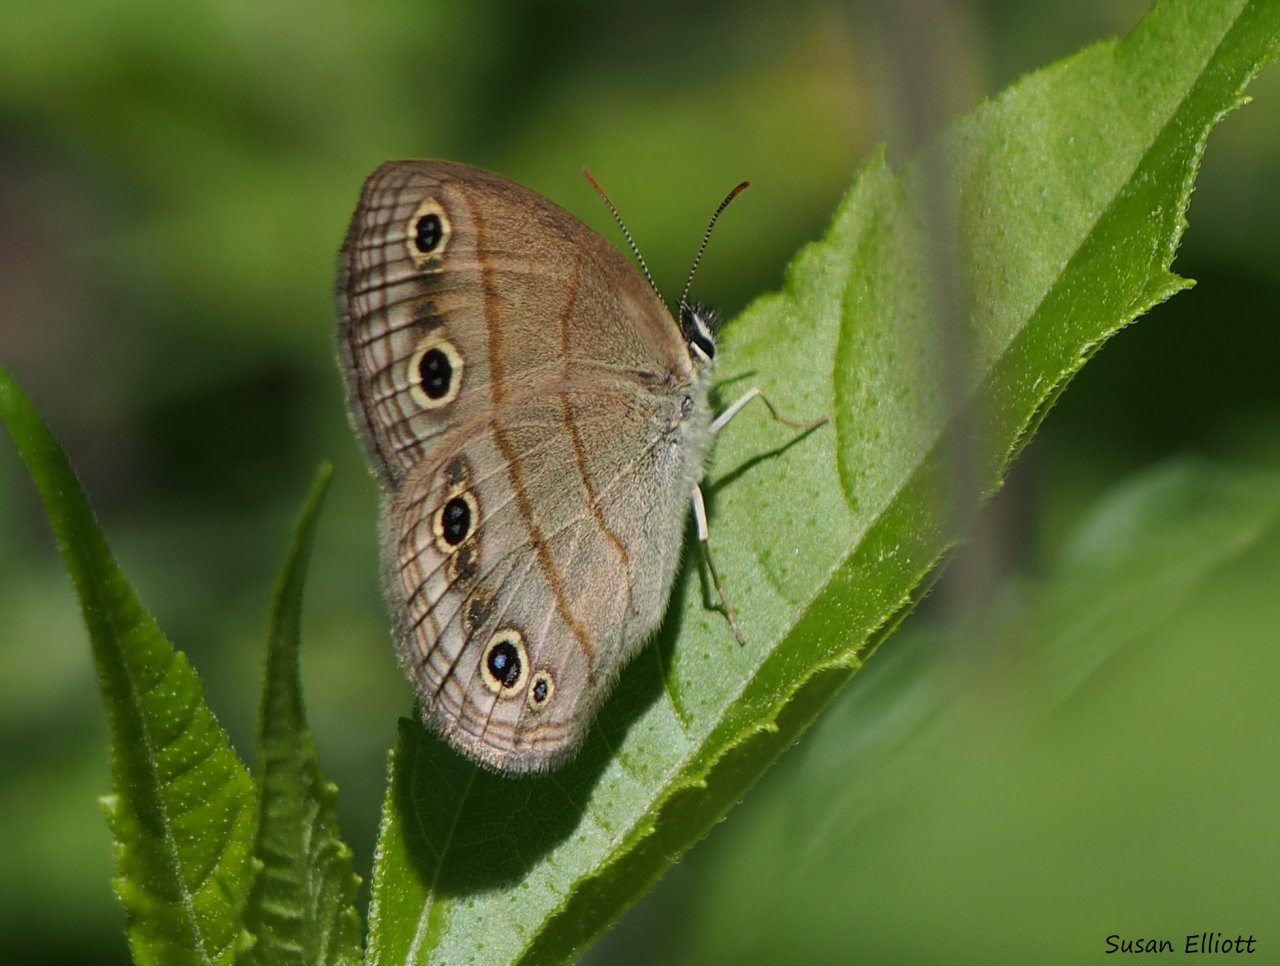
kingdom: Animalia
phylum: Arthropoda
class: Insecta
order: Lepidoptera
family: Nymphalidae
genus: Euptychia
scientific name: Euptychia cymela
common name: Little Wood Satyr
